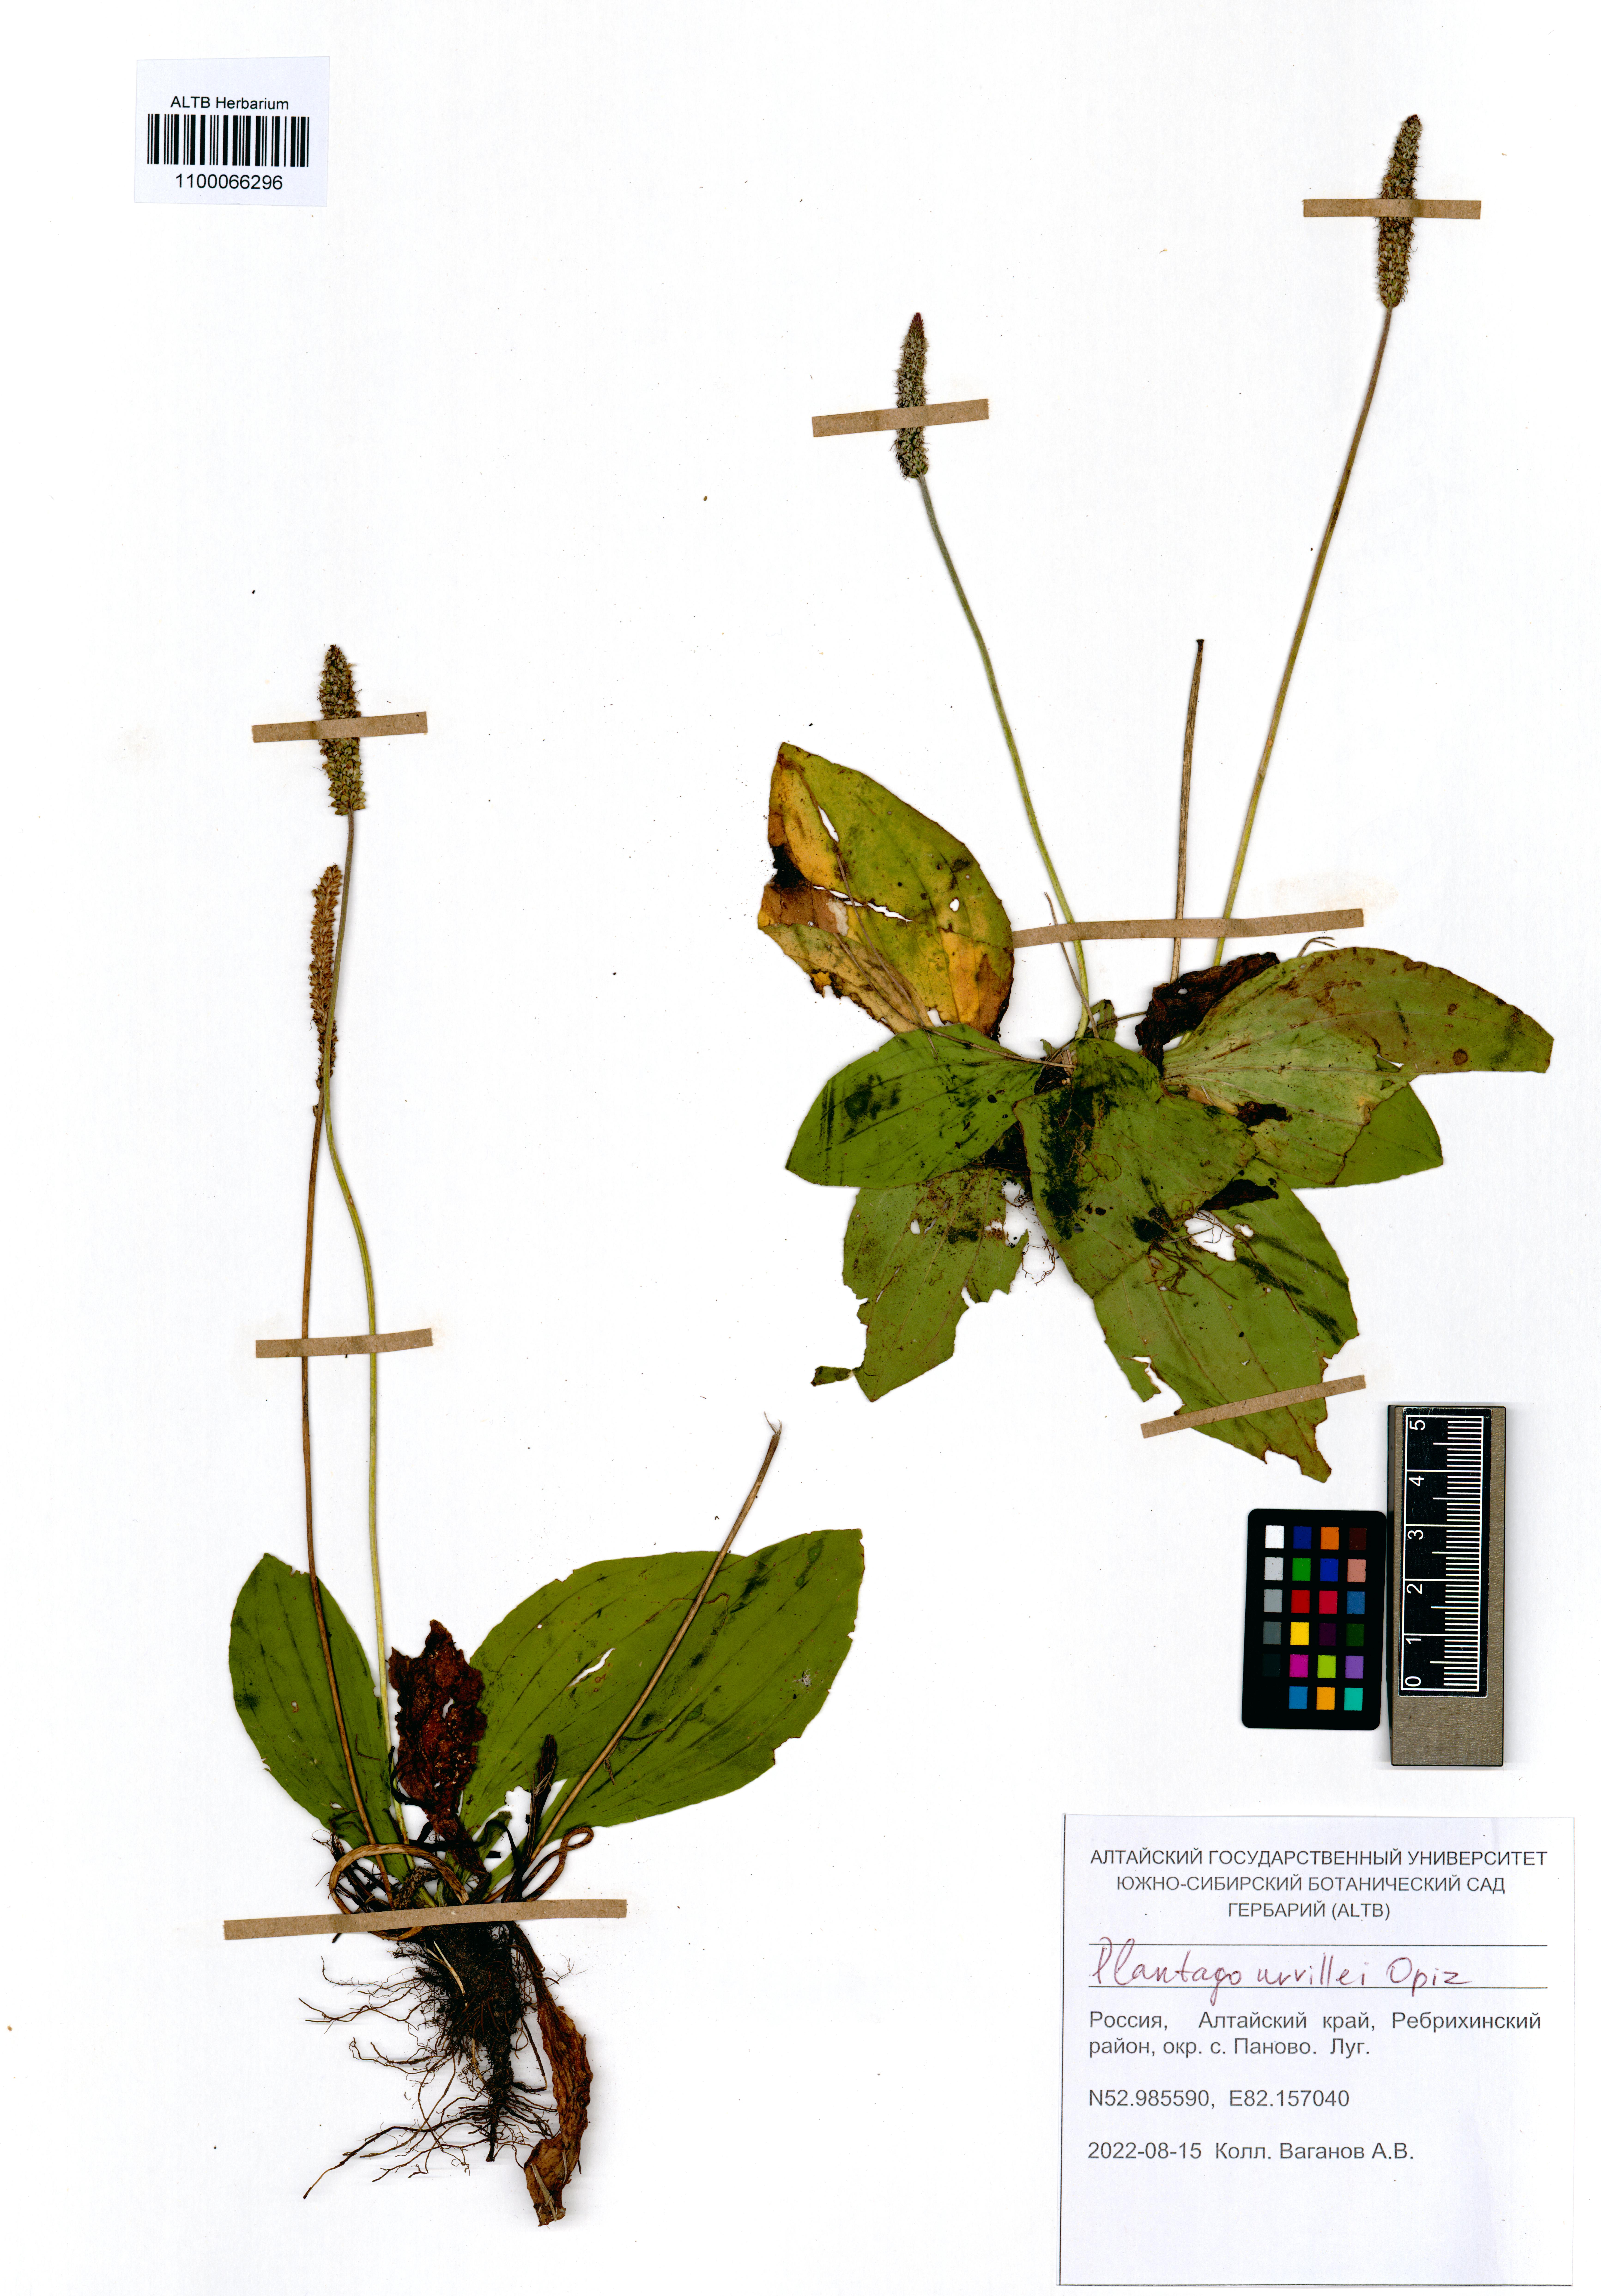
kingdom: Plantae
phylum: Tracheophyta
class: Magnoliopsida
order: Lamiales
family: Plantaginaceae
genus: Plantago
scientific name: Plantago urvillei
